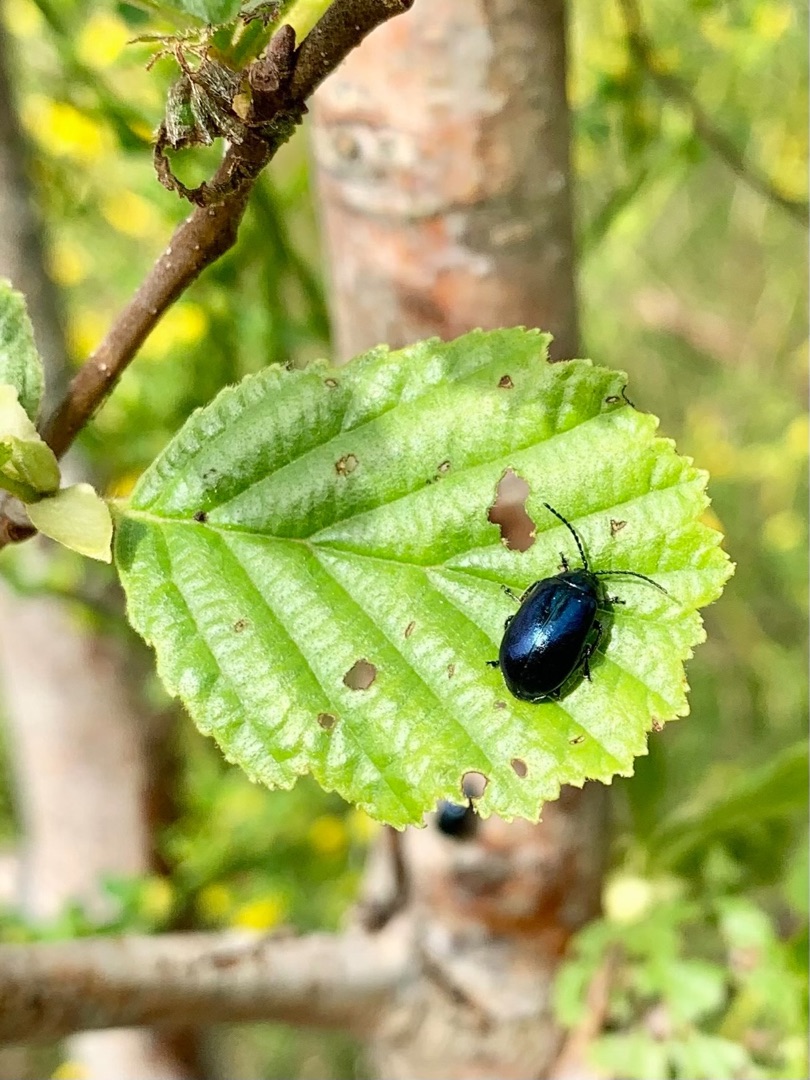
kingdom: Animalia
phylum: Arthropoda
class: Insecta
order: Coleoptera
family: Chrysomelidae
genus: Agelastica
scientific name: Agelastica alni
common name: Ellebladbille
